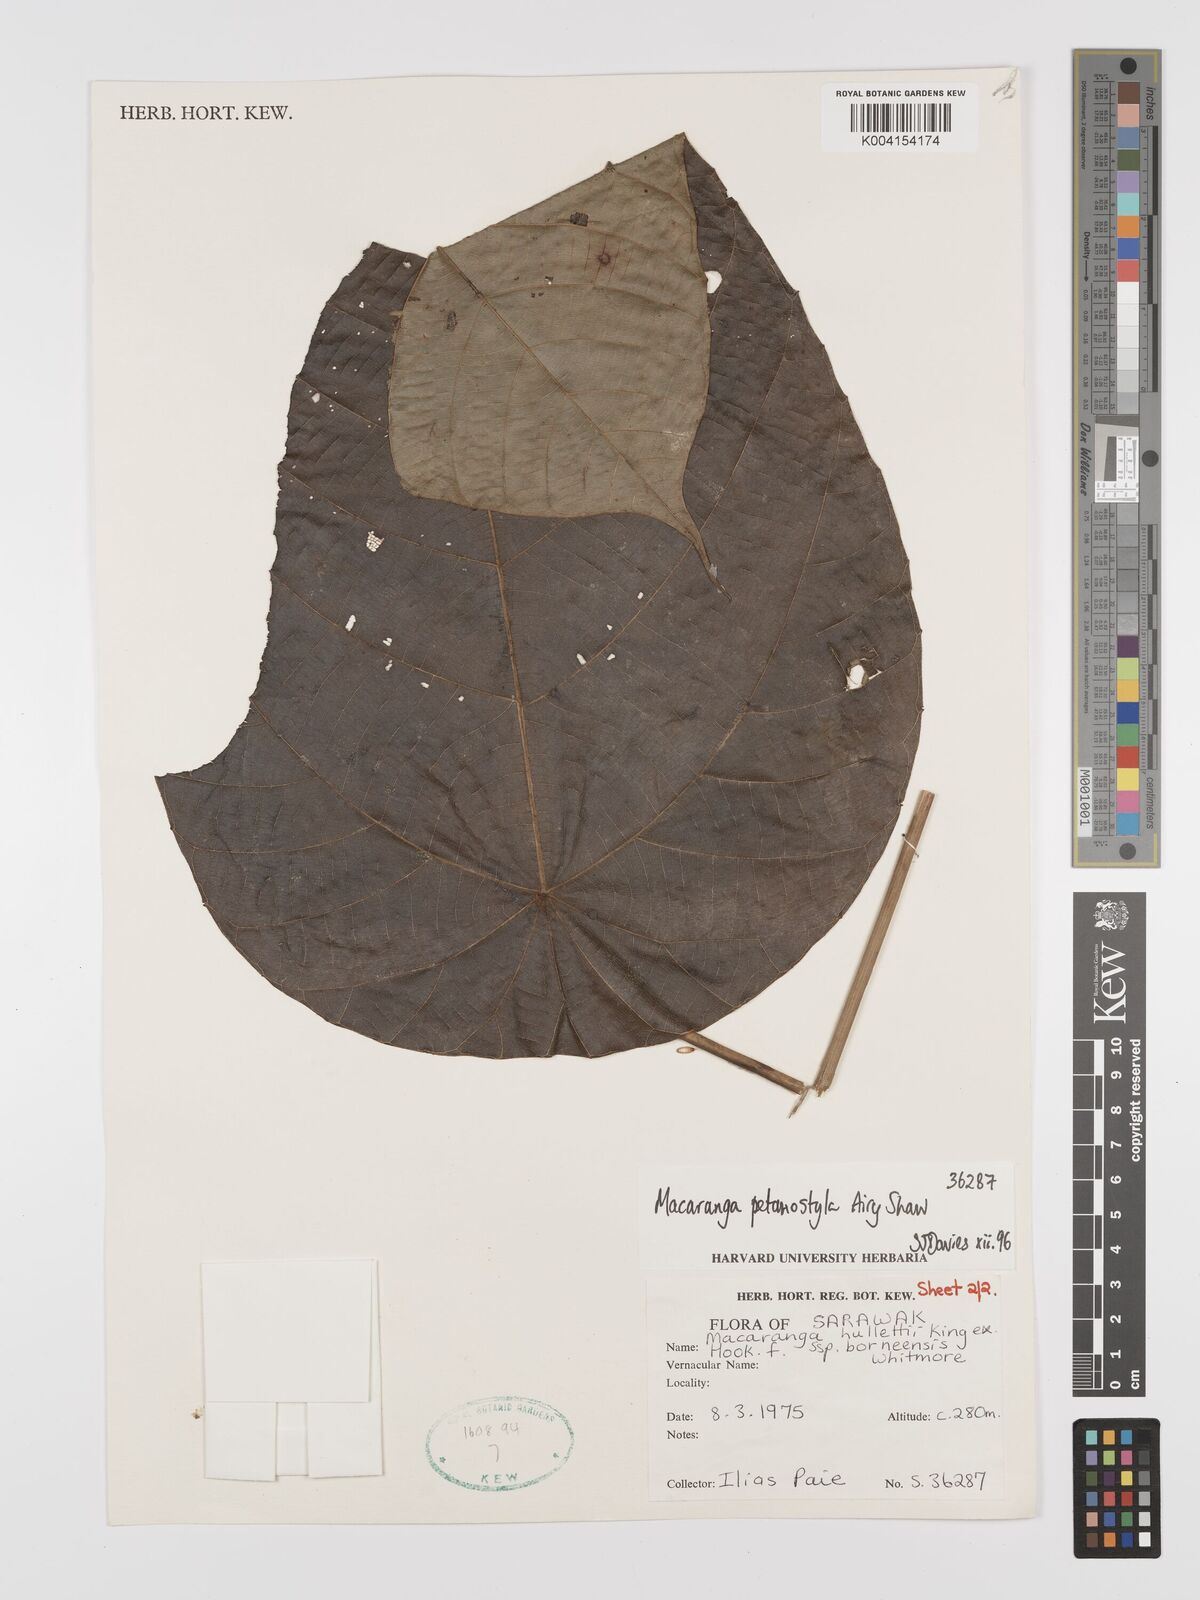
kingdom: Plantae
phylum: Tracheophyta
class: Magnoliopsida
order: Malpighiales
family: Euphorbiaceae
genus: Macaranga
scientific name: Macaranga petanostyla
